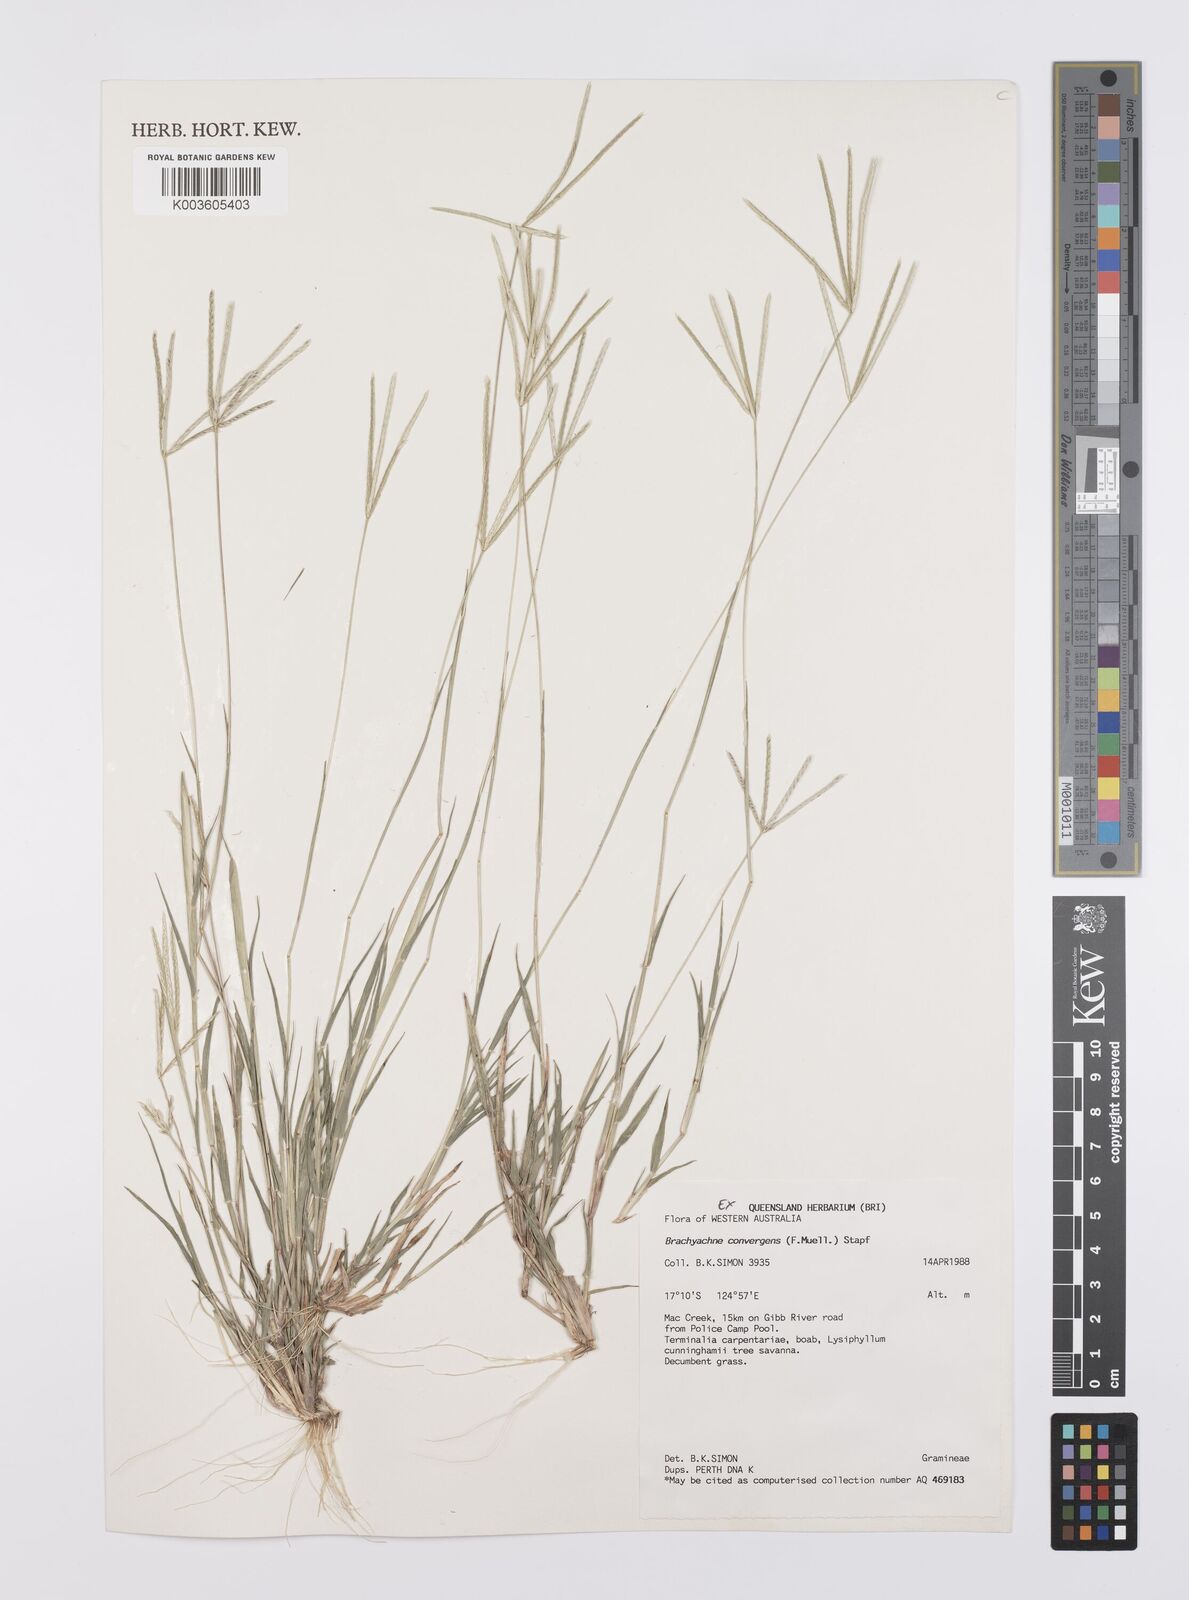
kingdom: Plantae
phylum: Tracheophyta
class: Liliopsida
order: Poales
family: Poaceae
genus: Cynodon
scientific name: Cynodon
